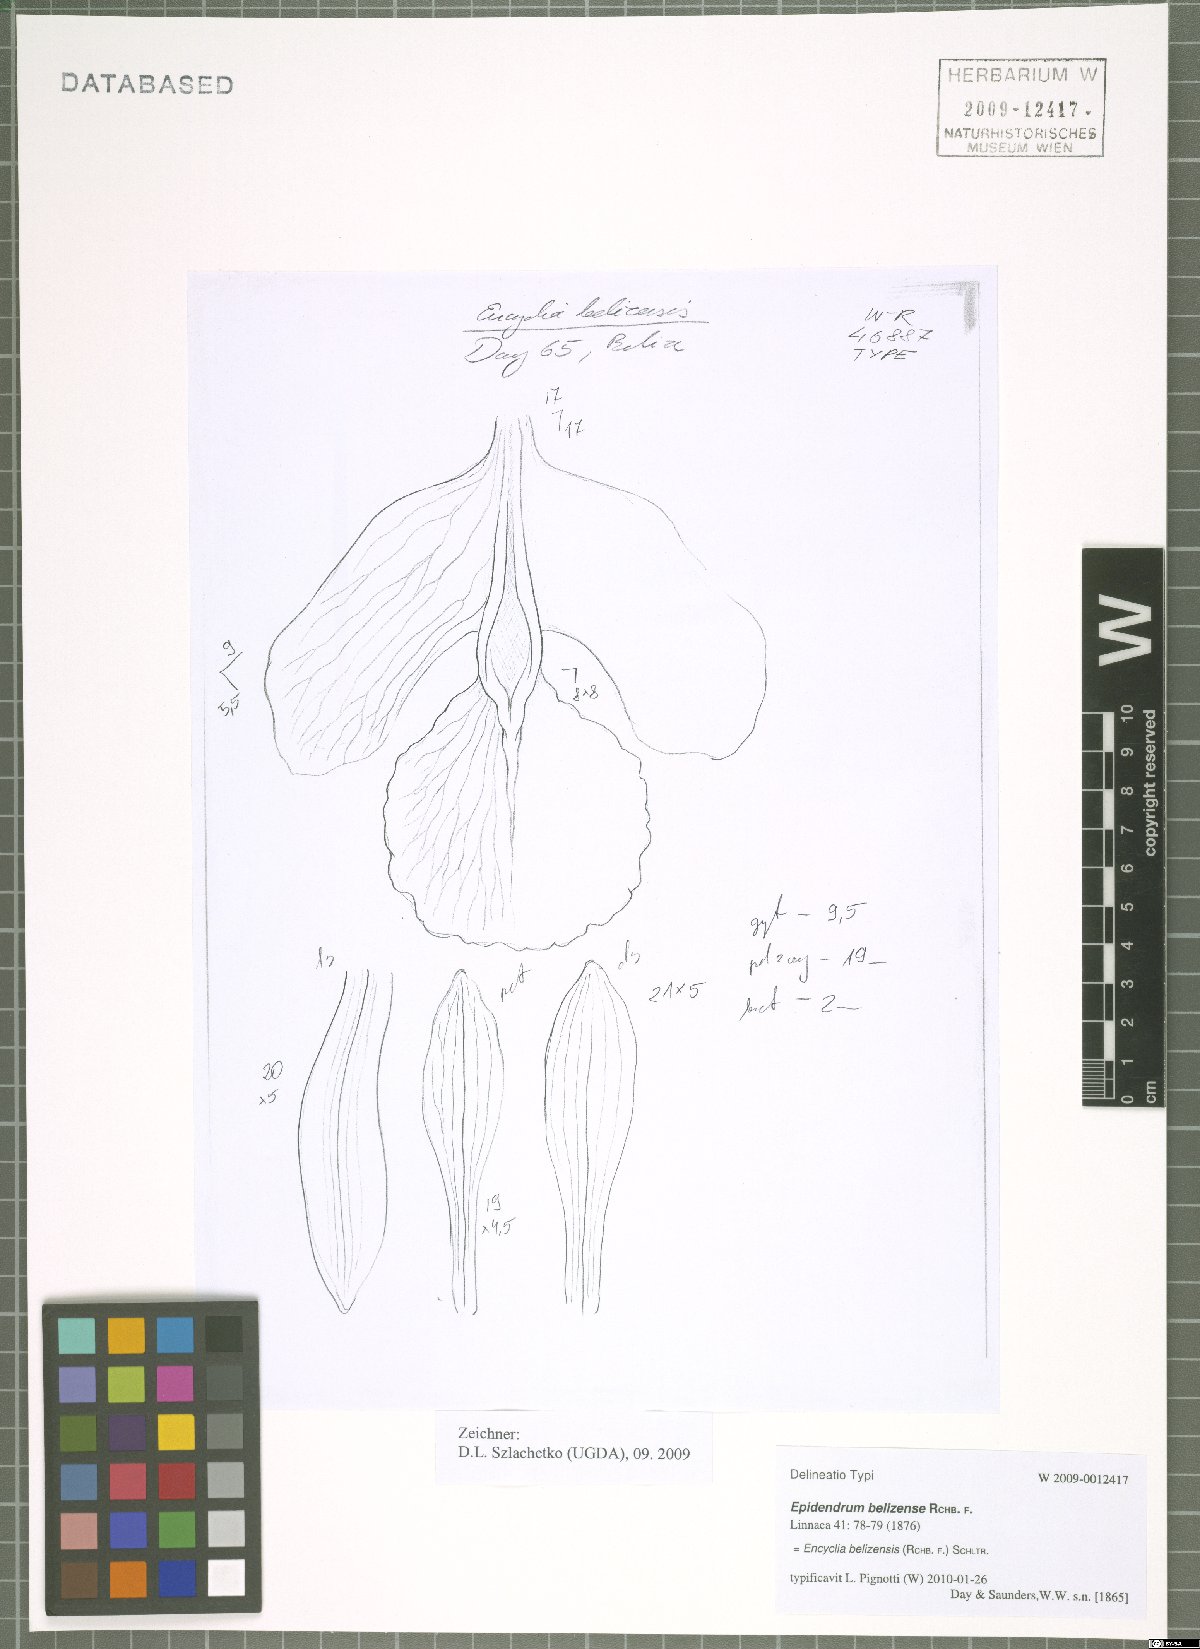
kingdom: Plantae
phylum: Tracheophyta
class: Liliopsida
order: Asparagales
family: Orchidaceae
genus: Encyclia
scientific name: Encyclia guatemalensis
